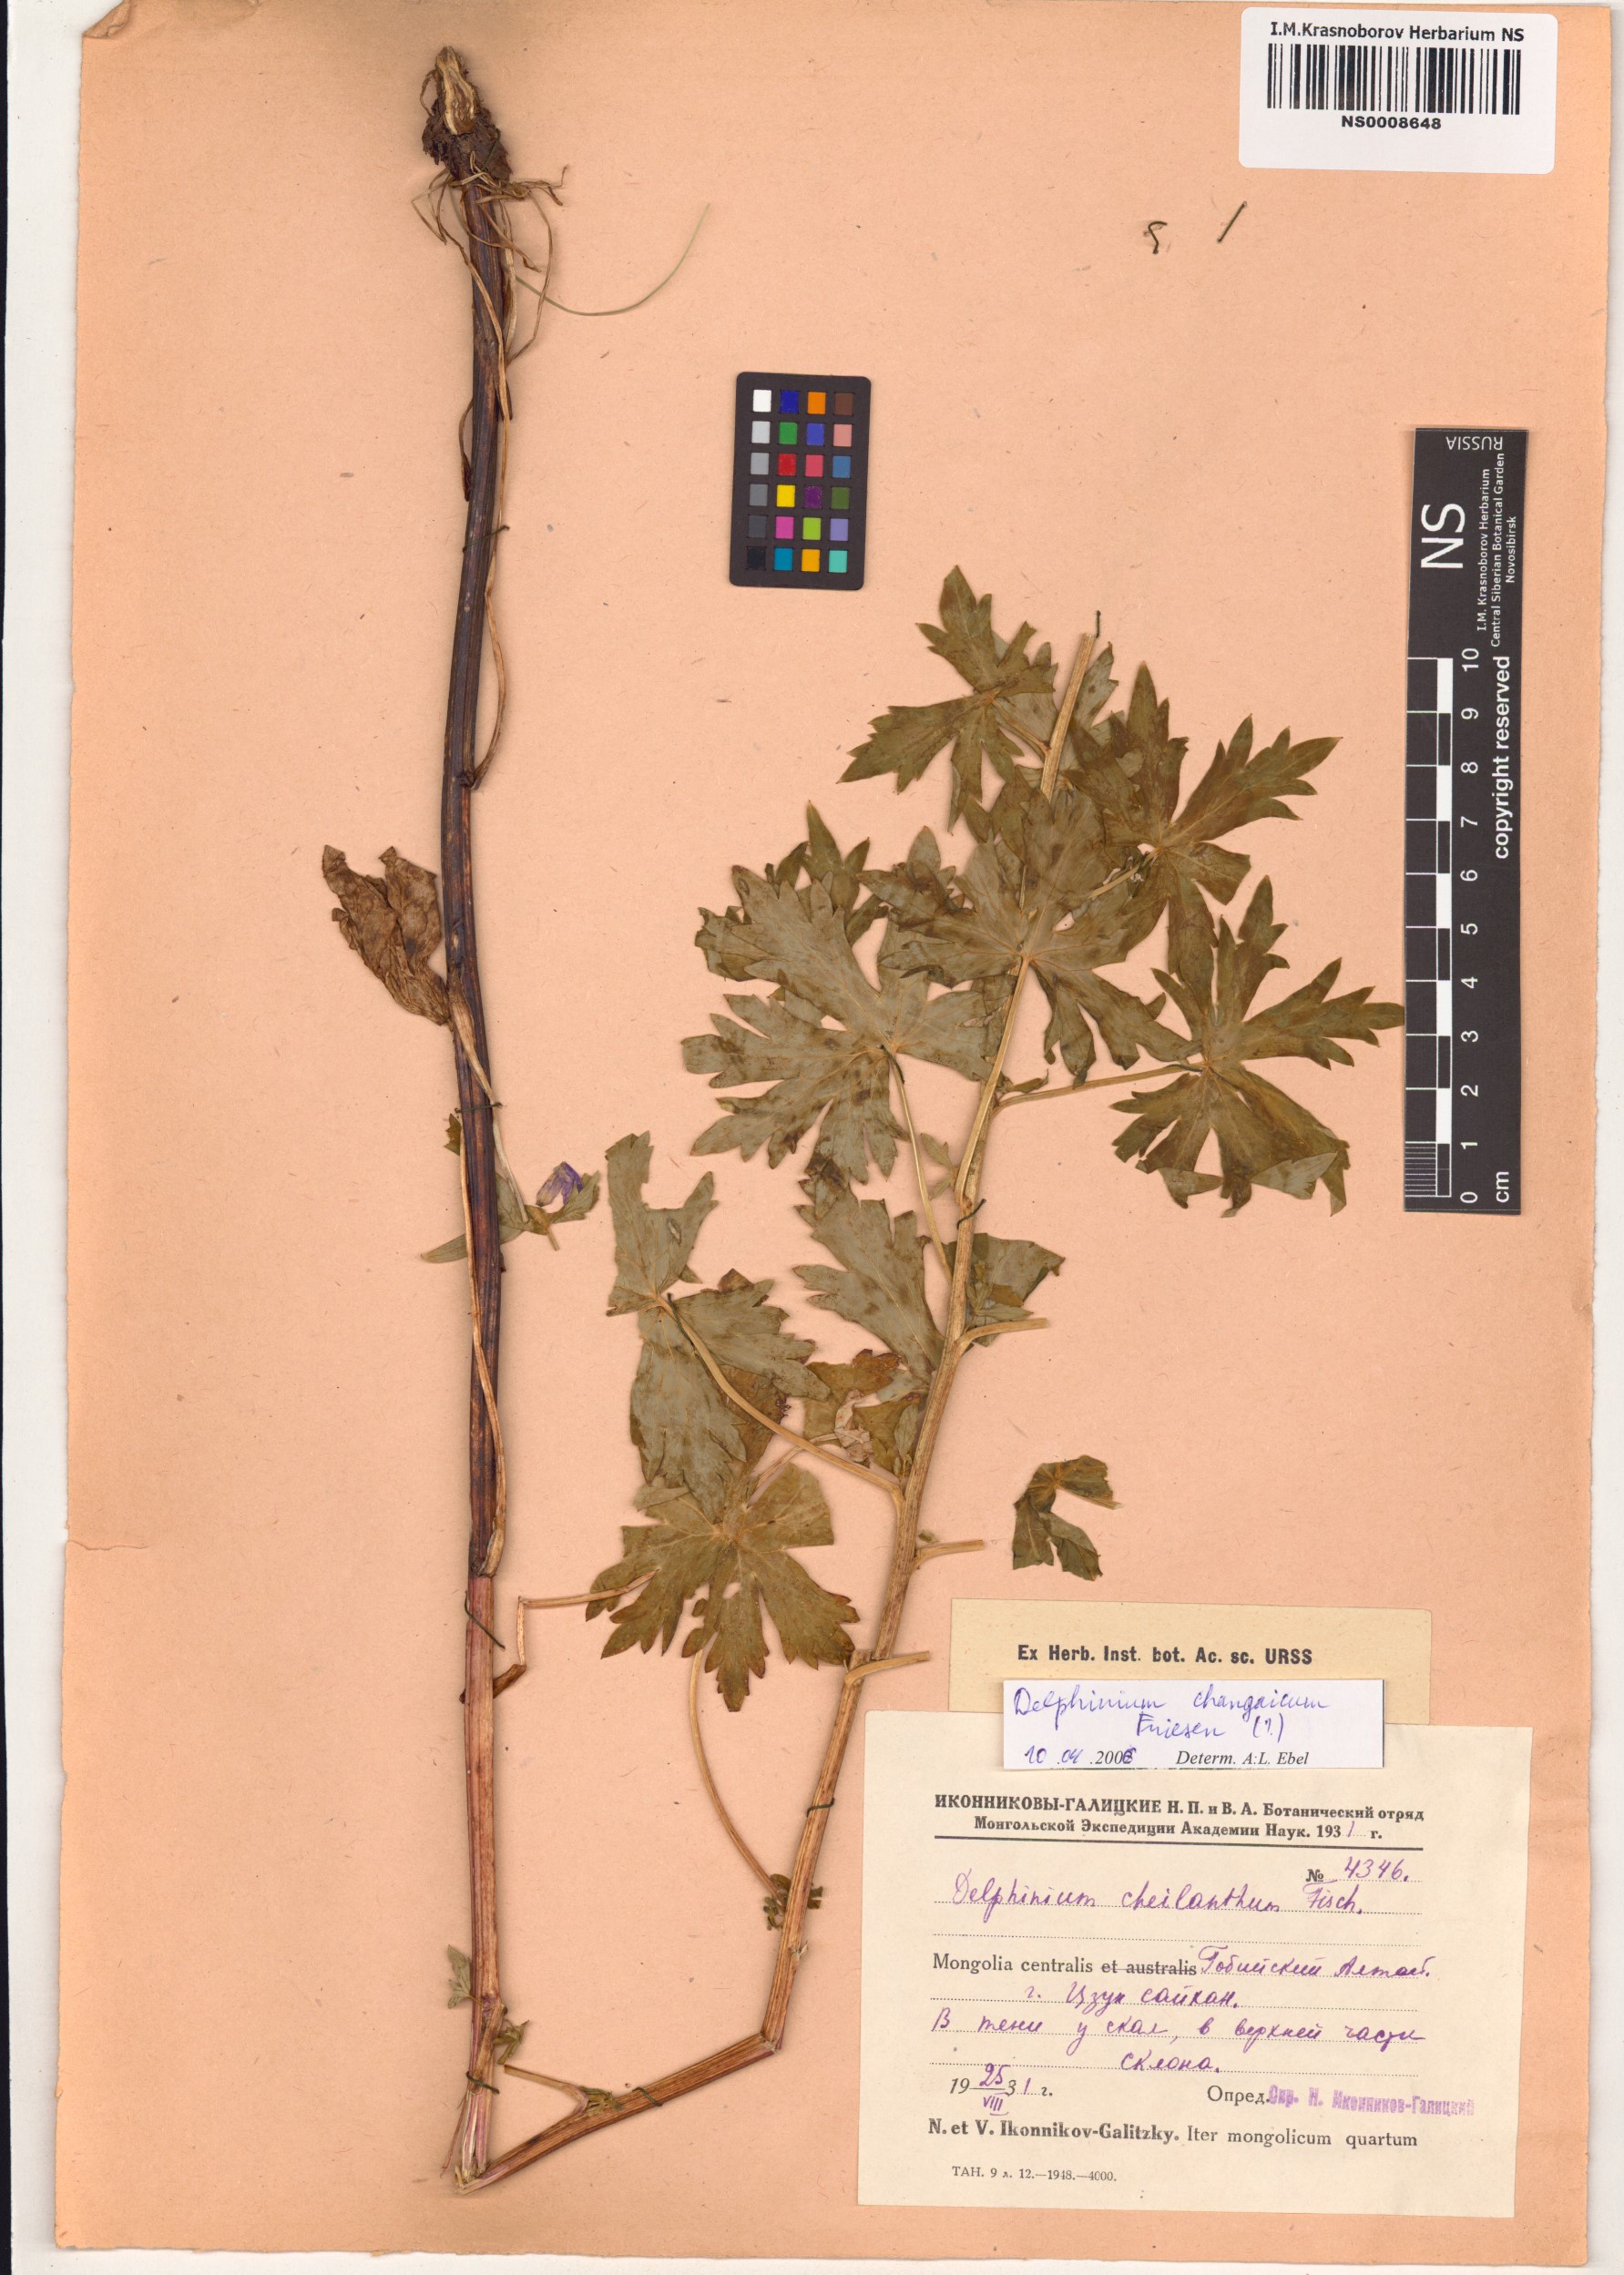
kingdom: Plantae
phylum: Tracheophyta
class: Magnoliopsida
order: Ranunculales
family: Ranunculaceae
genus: Delphinium
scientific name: Delphinium changaicum
